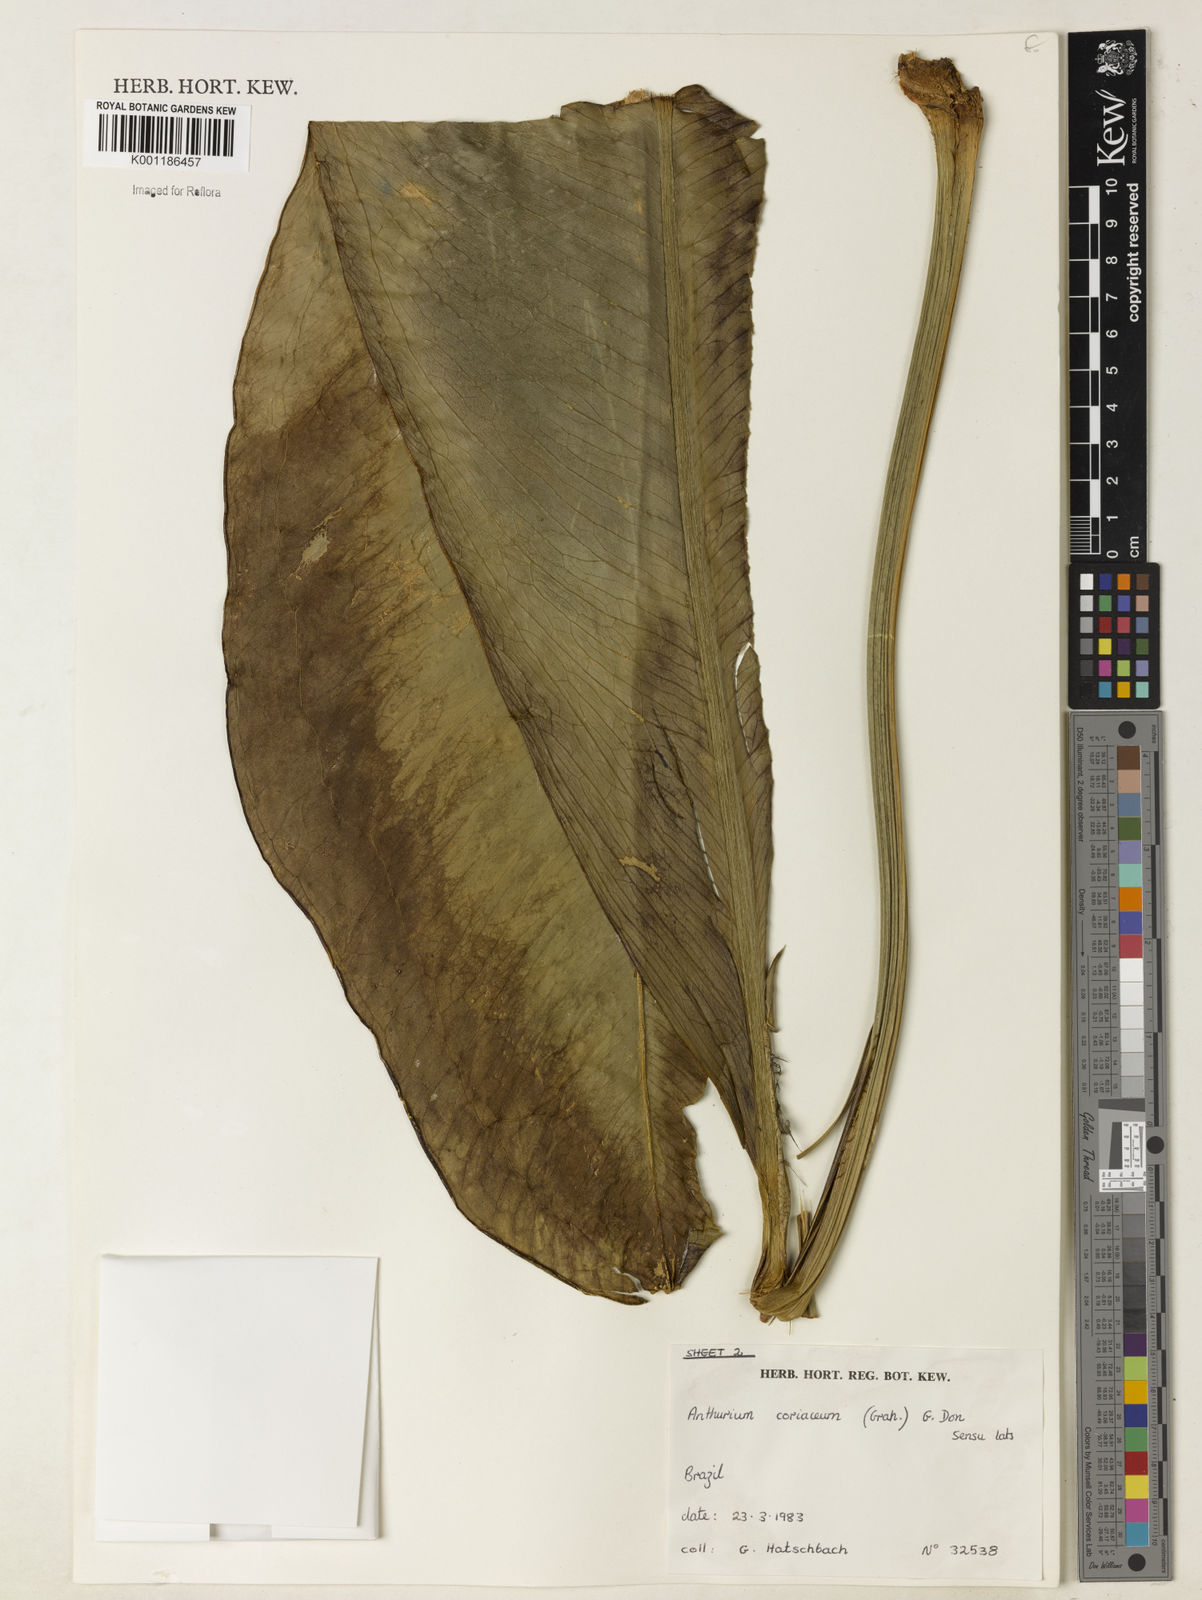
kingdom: Plantae
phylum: Tracheophyta
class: Liliopsida
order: Alismatales
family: Araceae
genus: Anthurium
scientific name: Anthurium coriaceum
